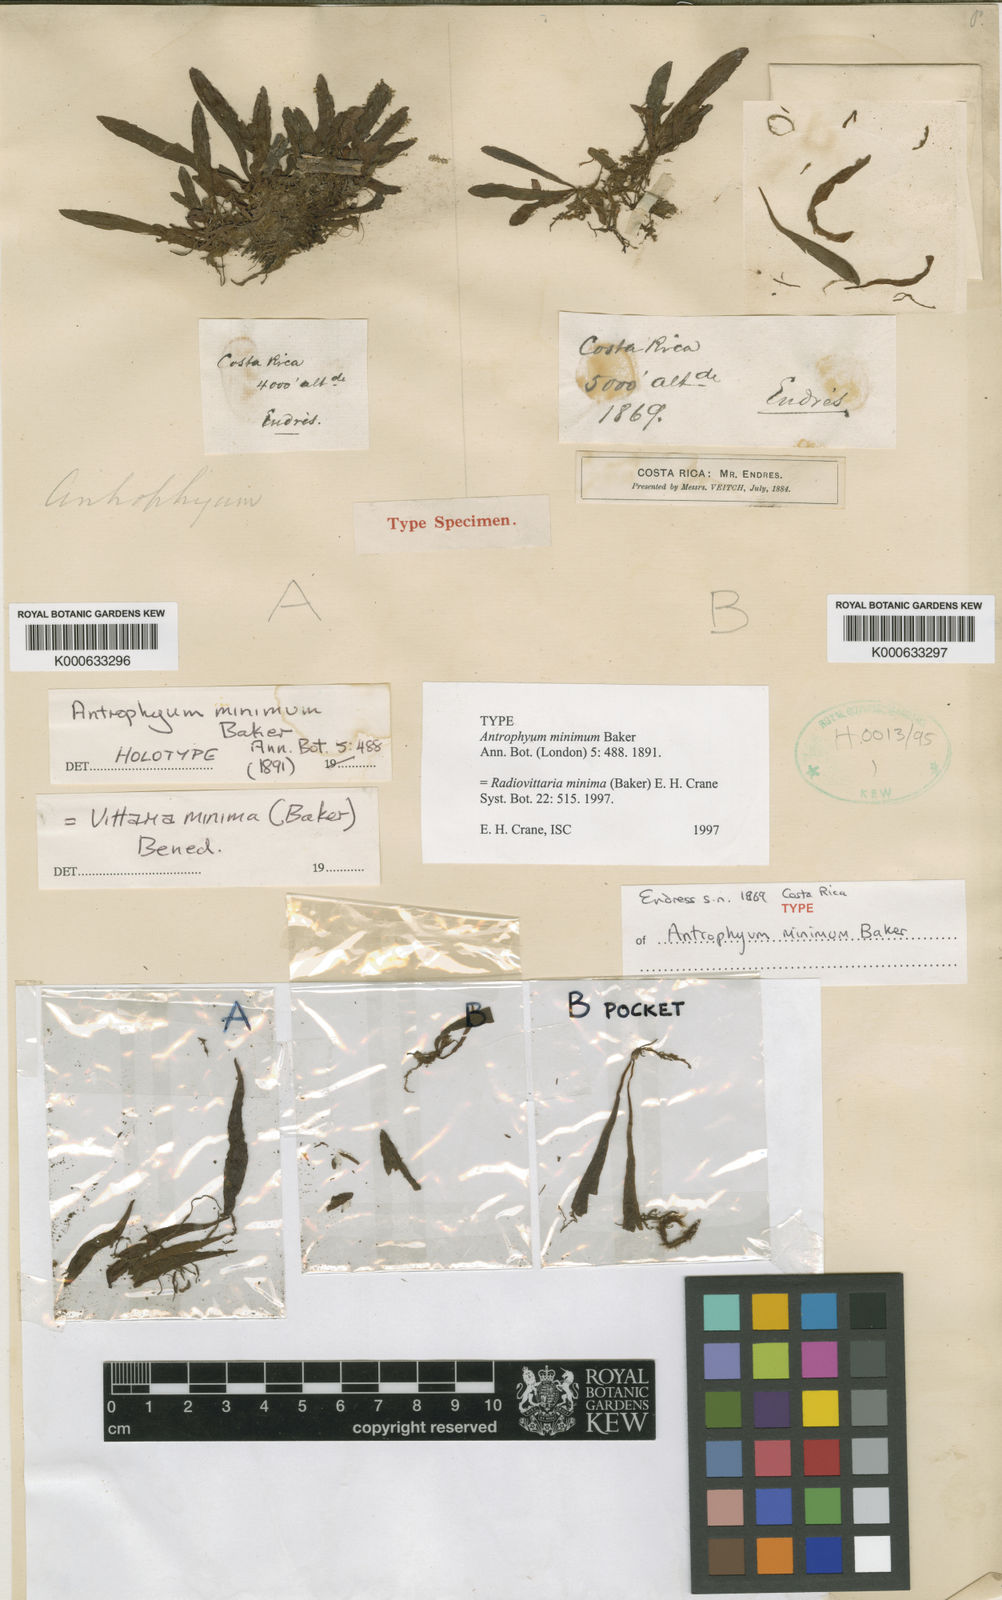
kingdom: Plantae
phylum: Tracheophyta
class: Polypodiopsida
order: Polypodiales
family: Pteridaceae
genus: Radiovittaria
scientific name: Radiovittaria minima
